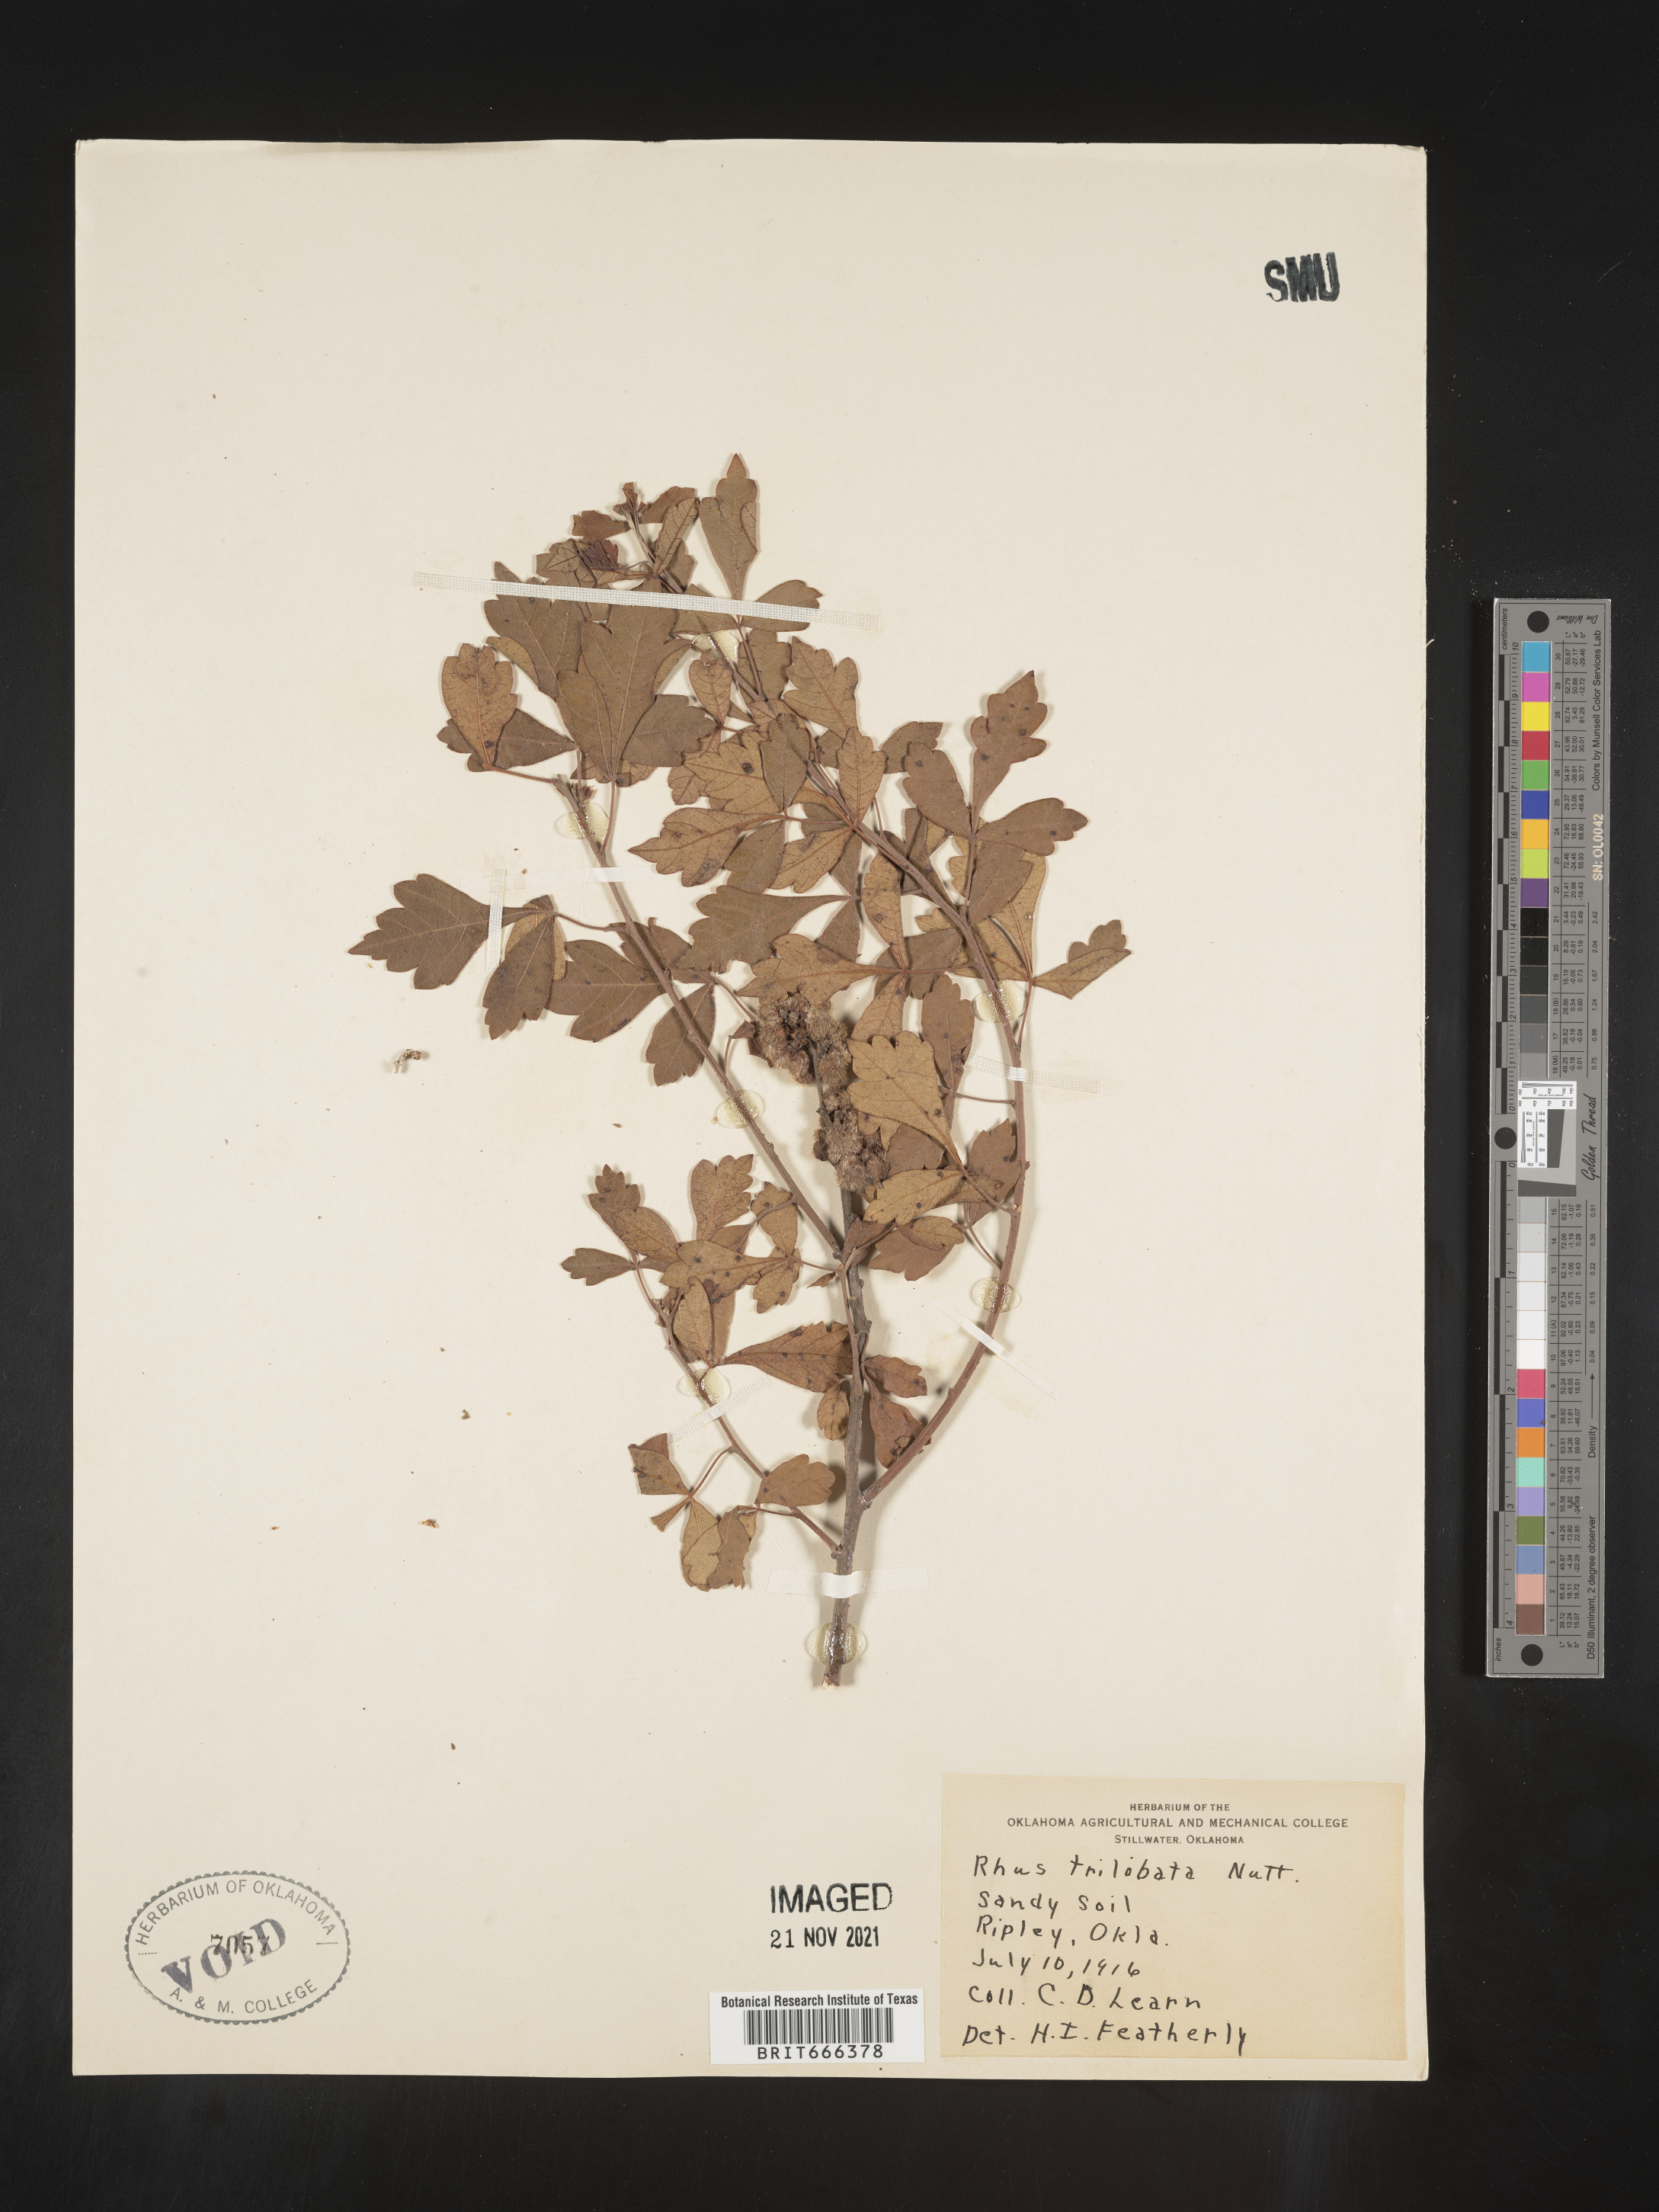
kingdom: Plantae
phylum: Tracheophyta
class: Magnoliopsida
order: Sapindales
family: Anacardiaceae
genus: Rhus
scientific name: Rhus trilobata
